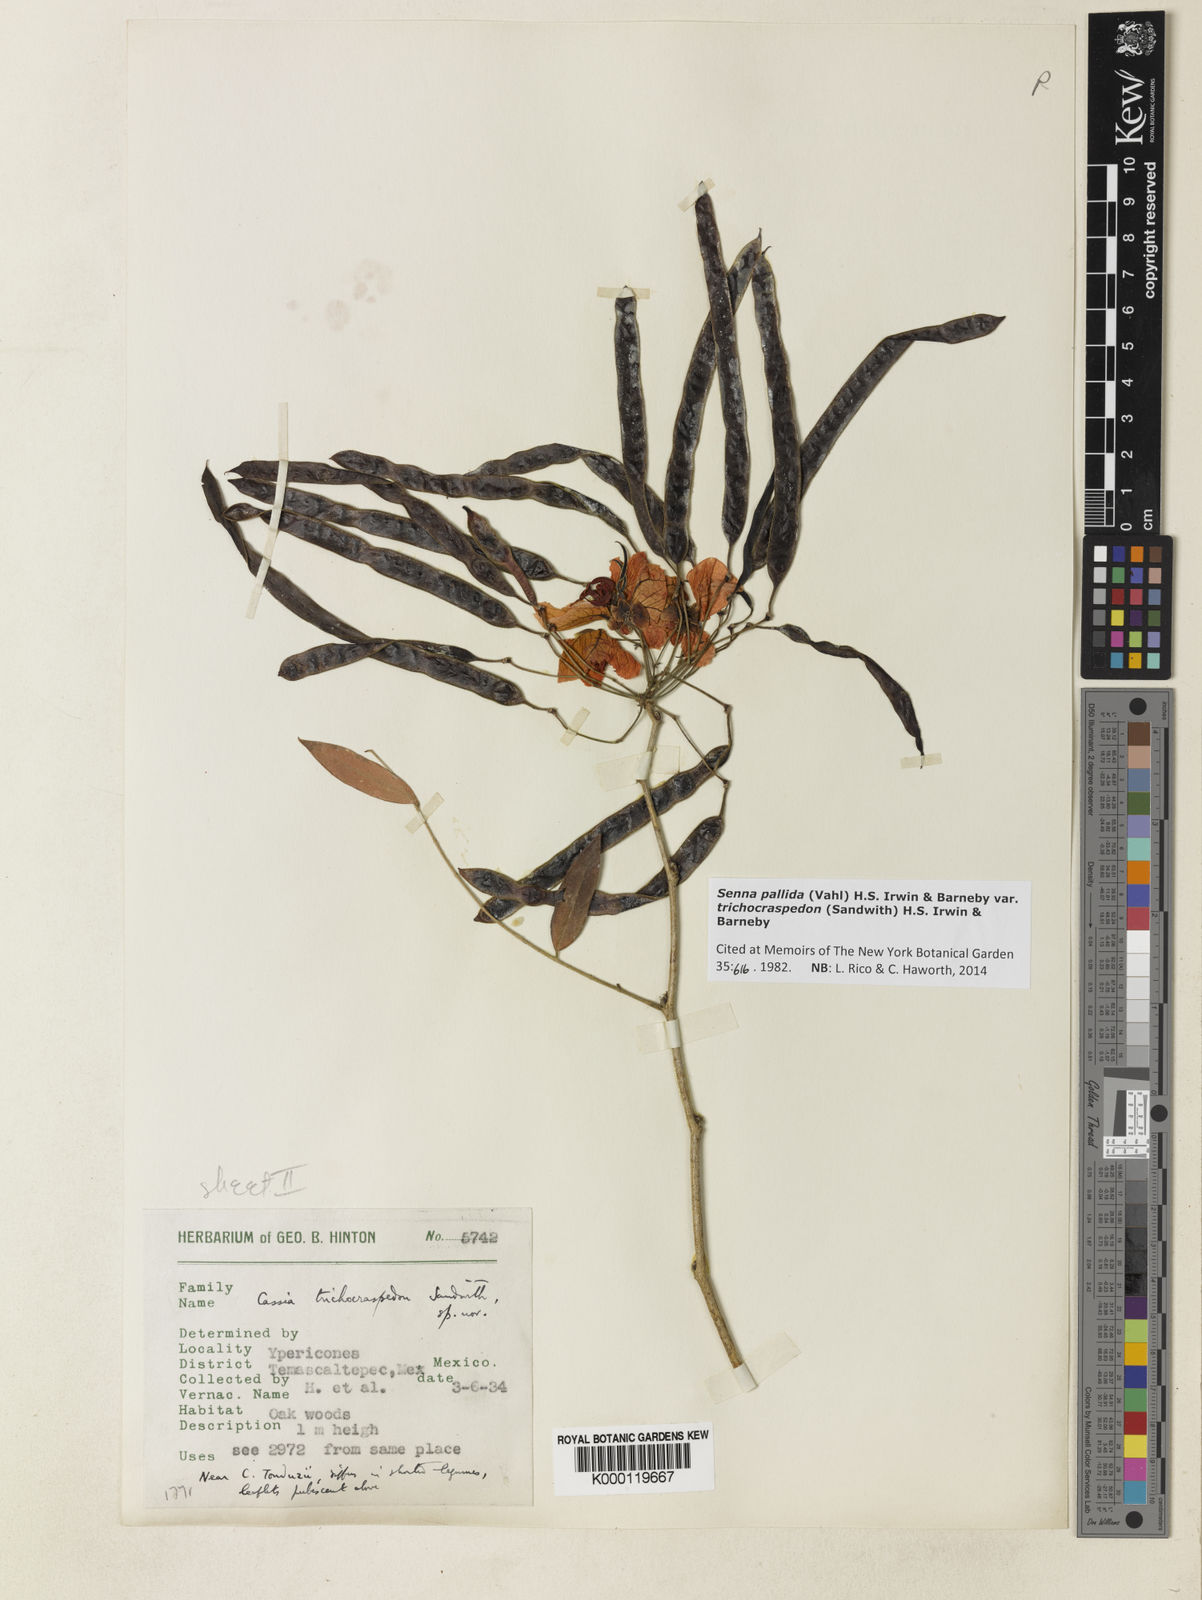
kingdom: Plantae
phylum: Tracheophyta
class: Magnoliopsida
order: Fabales
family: Fabaceae
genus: Senna
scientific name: Senna pallida
